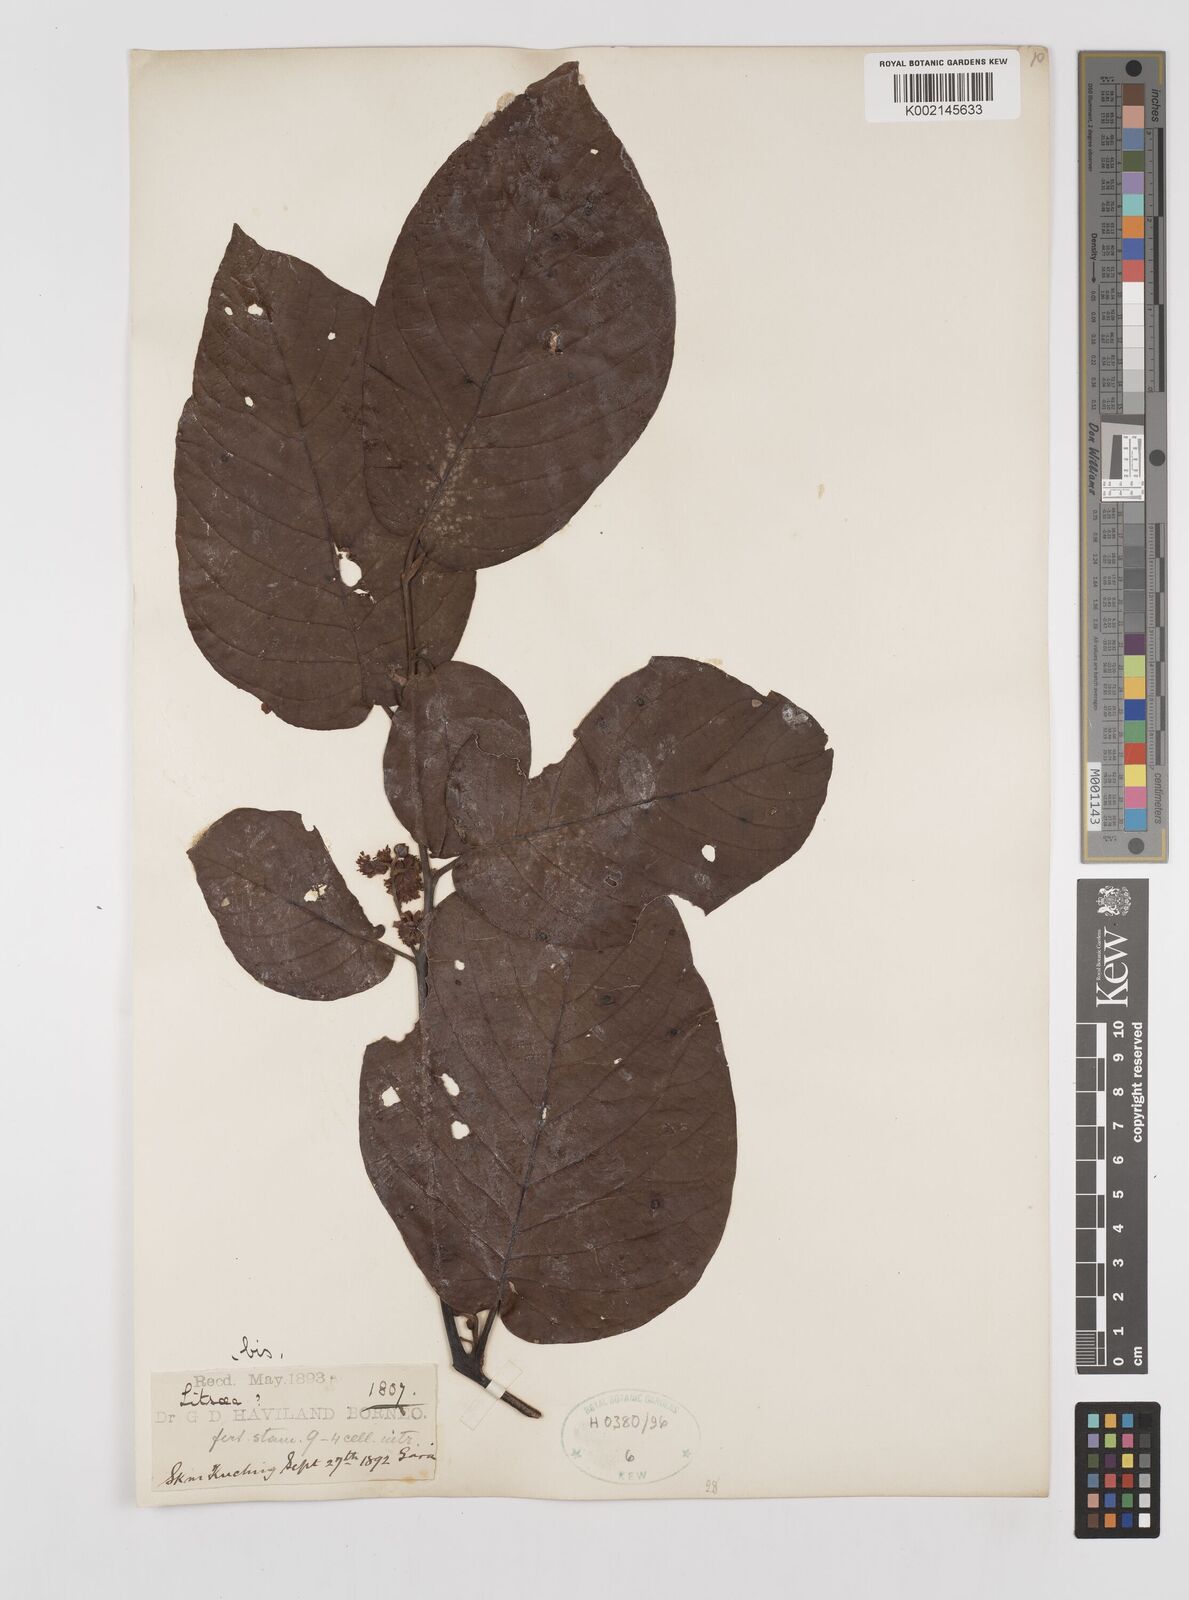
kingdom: Plantae
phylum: Tracheophyta
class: Magnoliopsida
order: Laurales
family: Lauraceae
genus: Litsea
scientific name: Litsea
